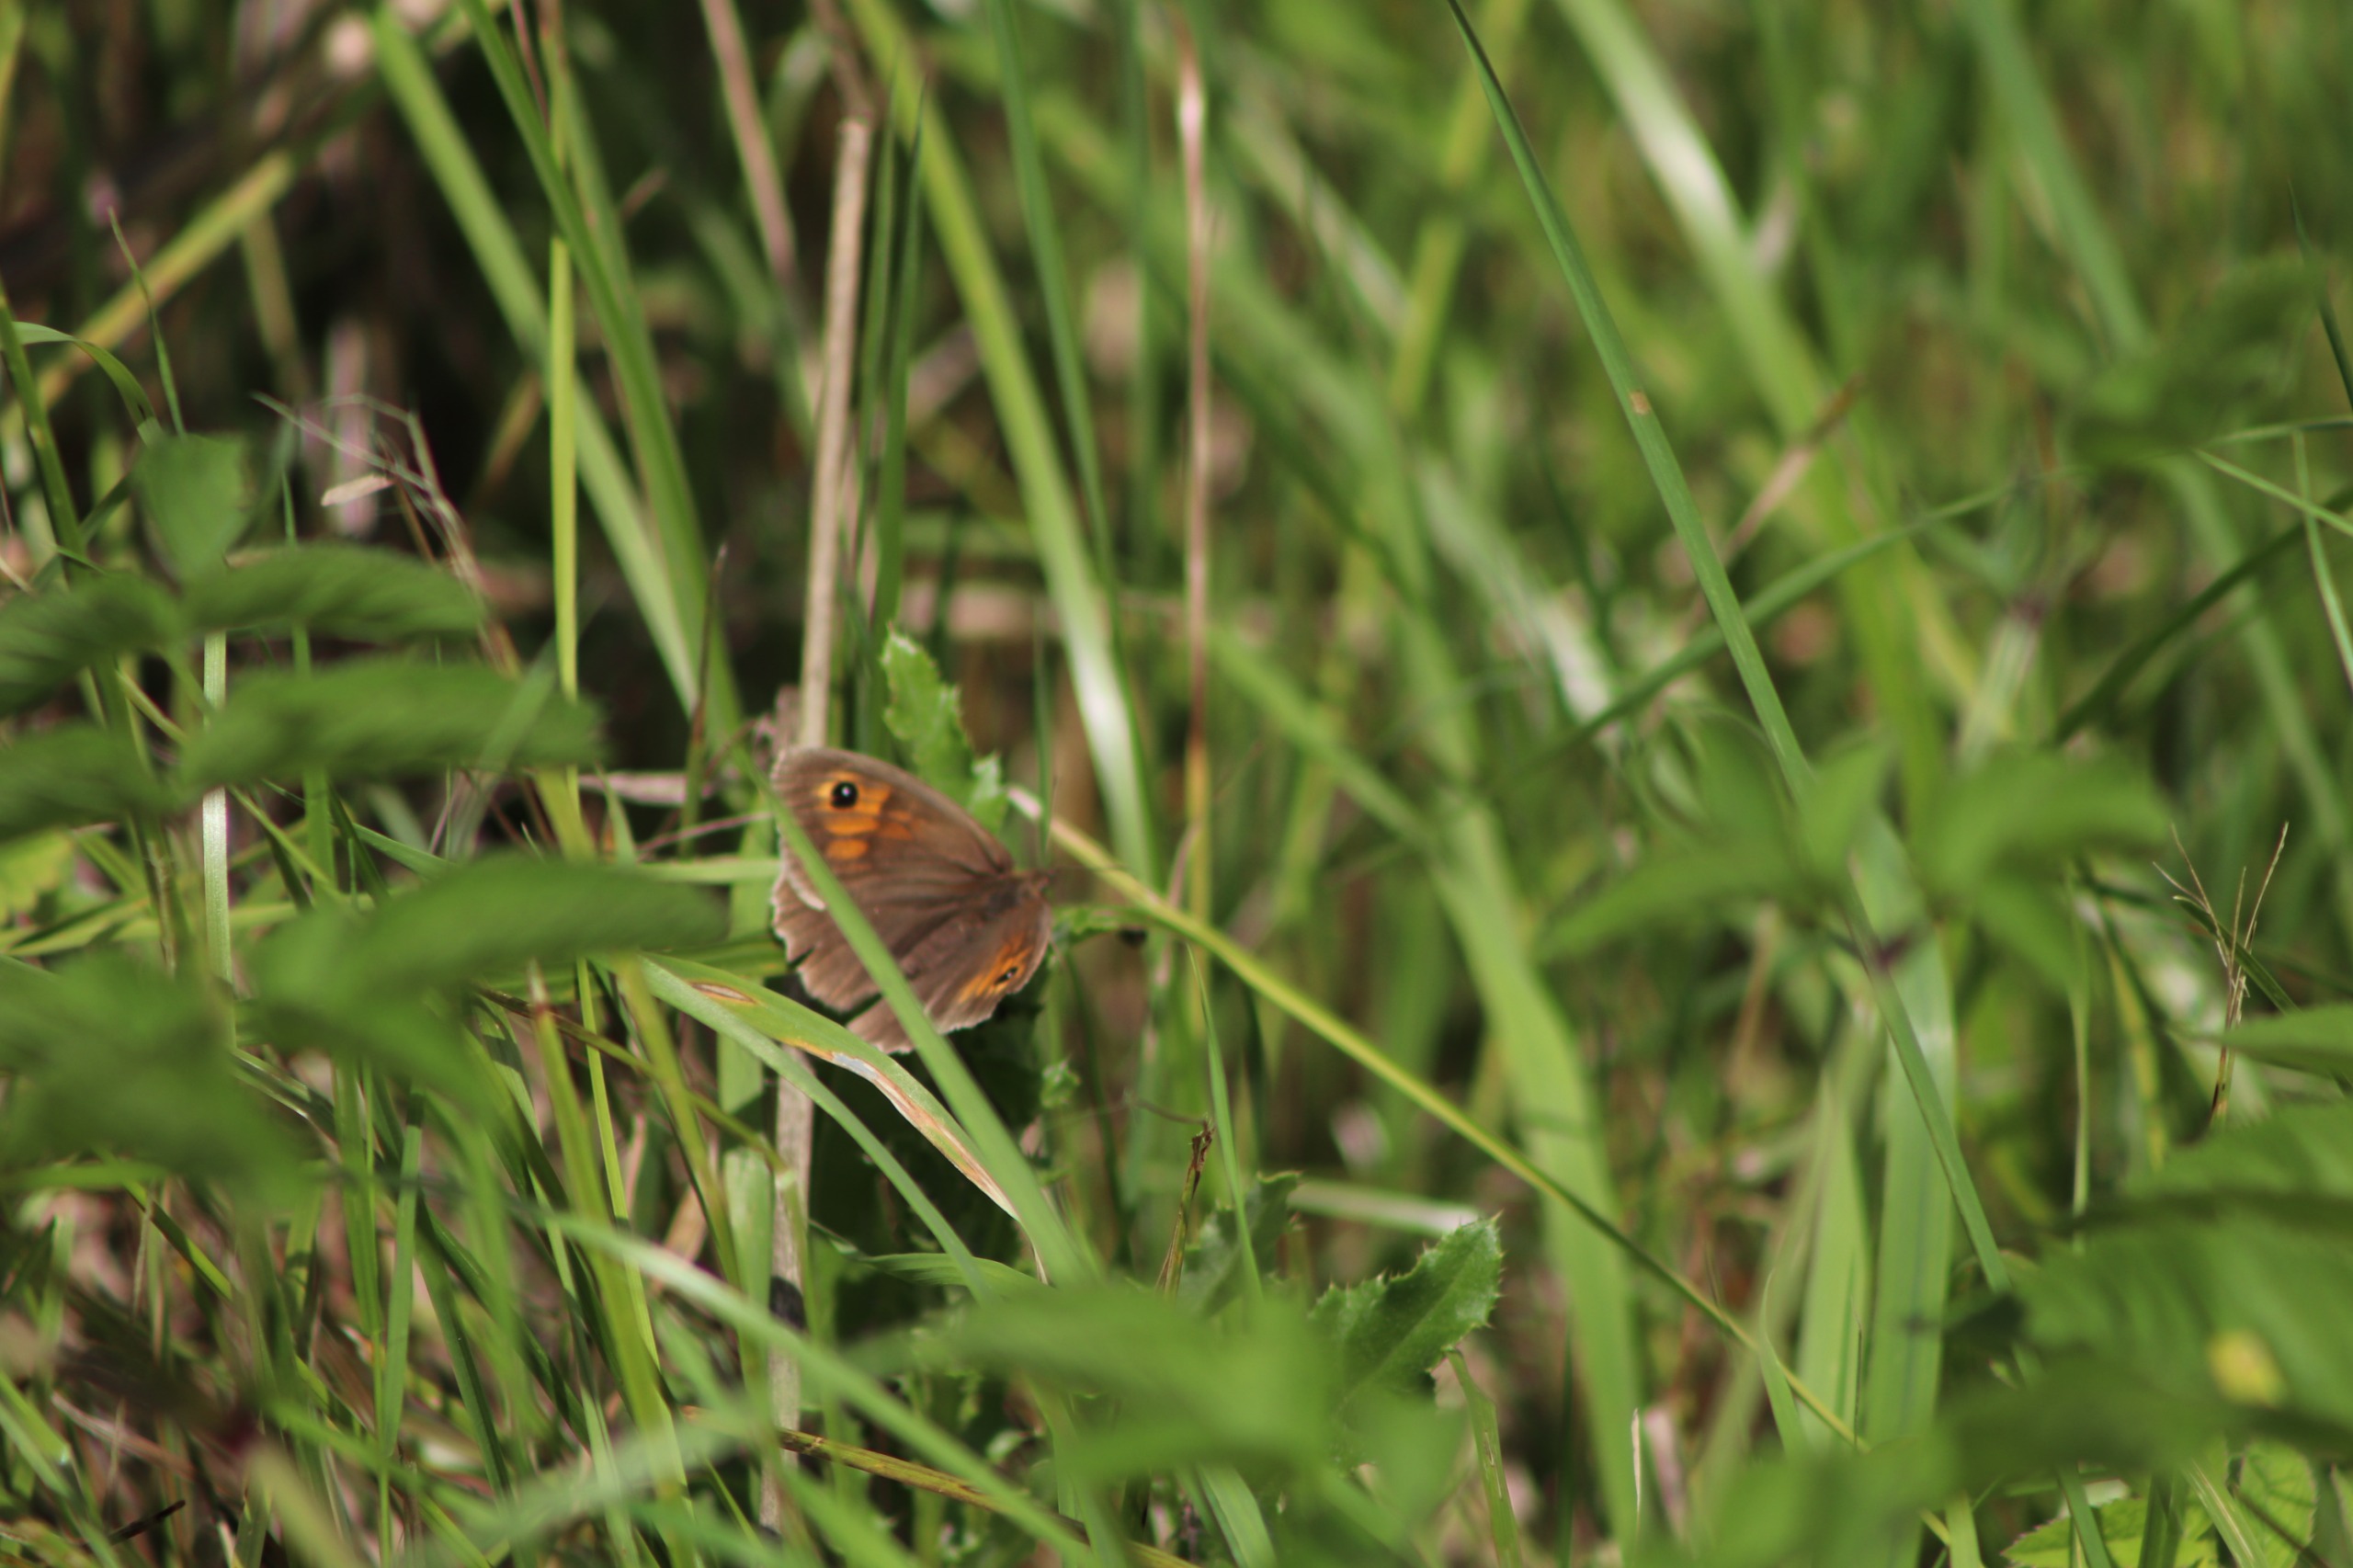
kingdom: Animalia
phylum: Arthropoda
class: Insecta
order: Lepidoptera
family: Nymphalidae
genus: Maniola
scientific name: Maniola jurtina
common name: Græsrandøje
